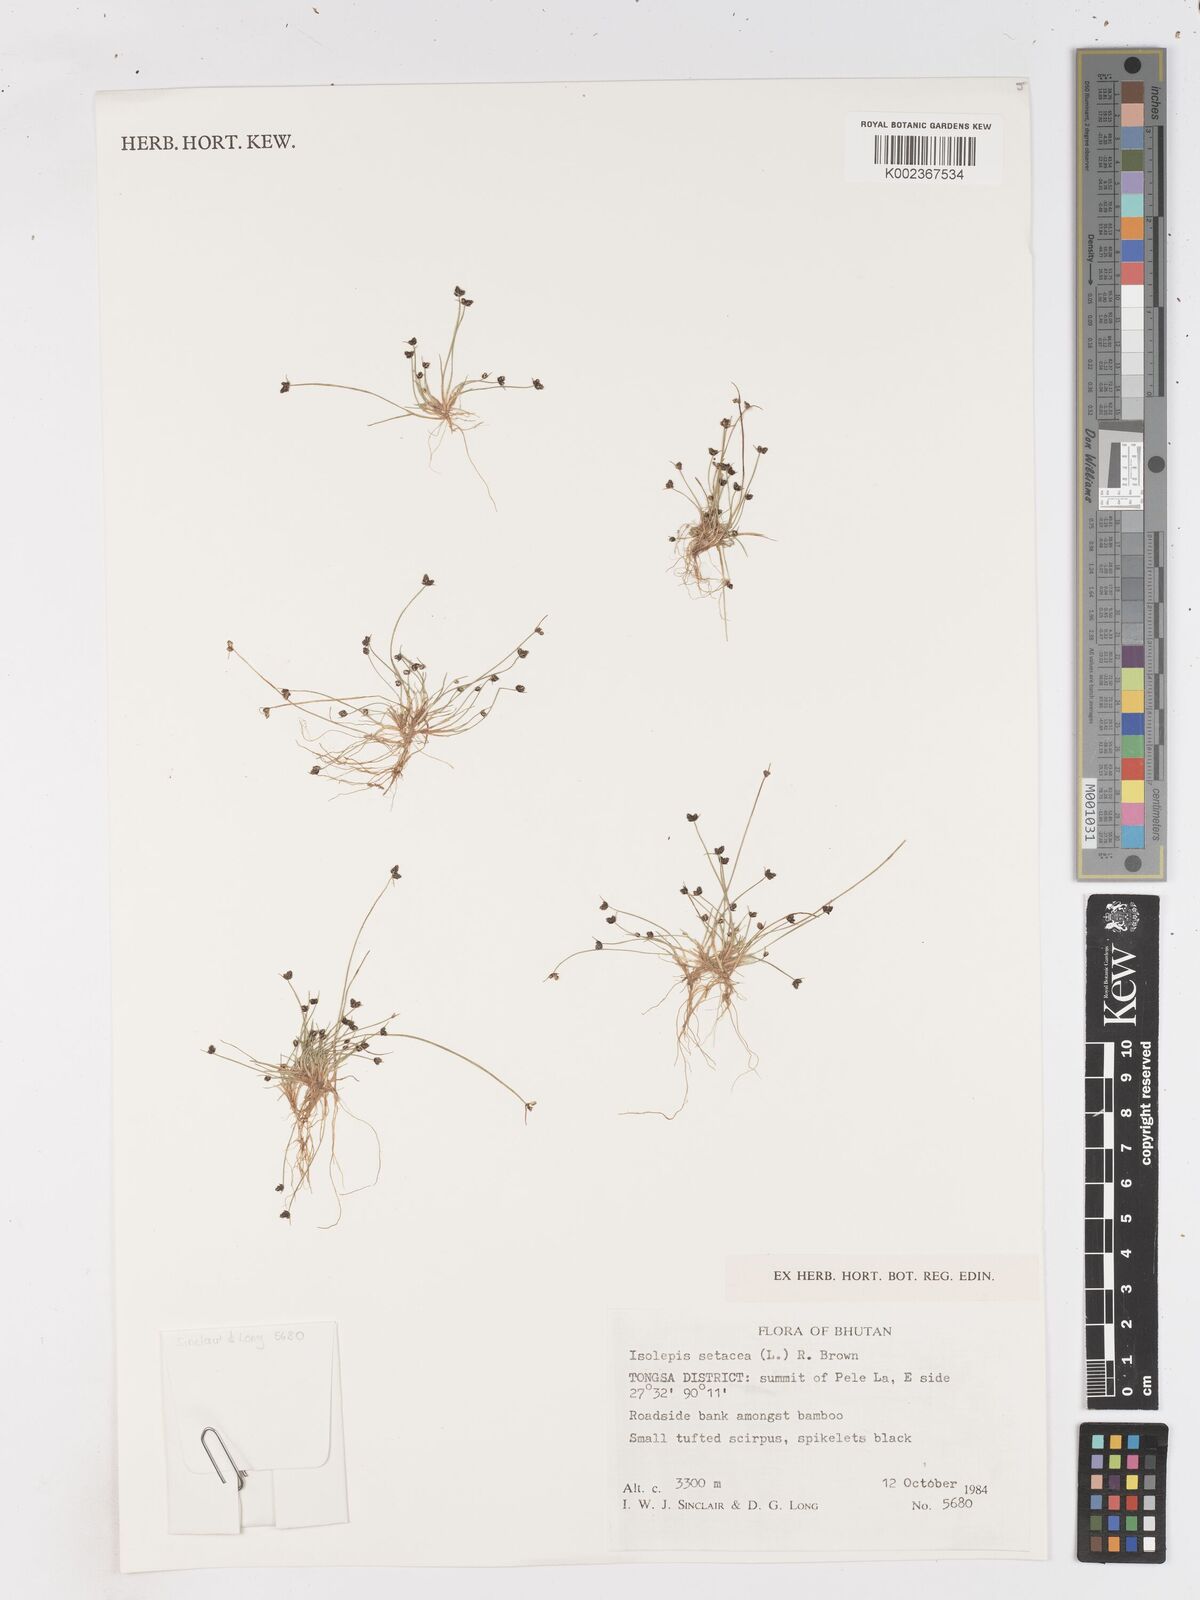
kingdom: Plantae
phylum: Tracheophyta
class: Liliopsida
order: Poales
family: Cyperaceae
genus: Isolepis
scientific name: Isolepis setacea
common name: Bristle club-rush
